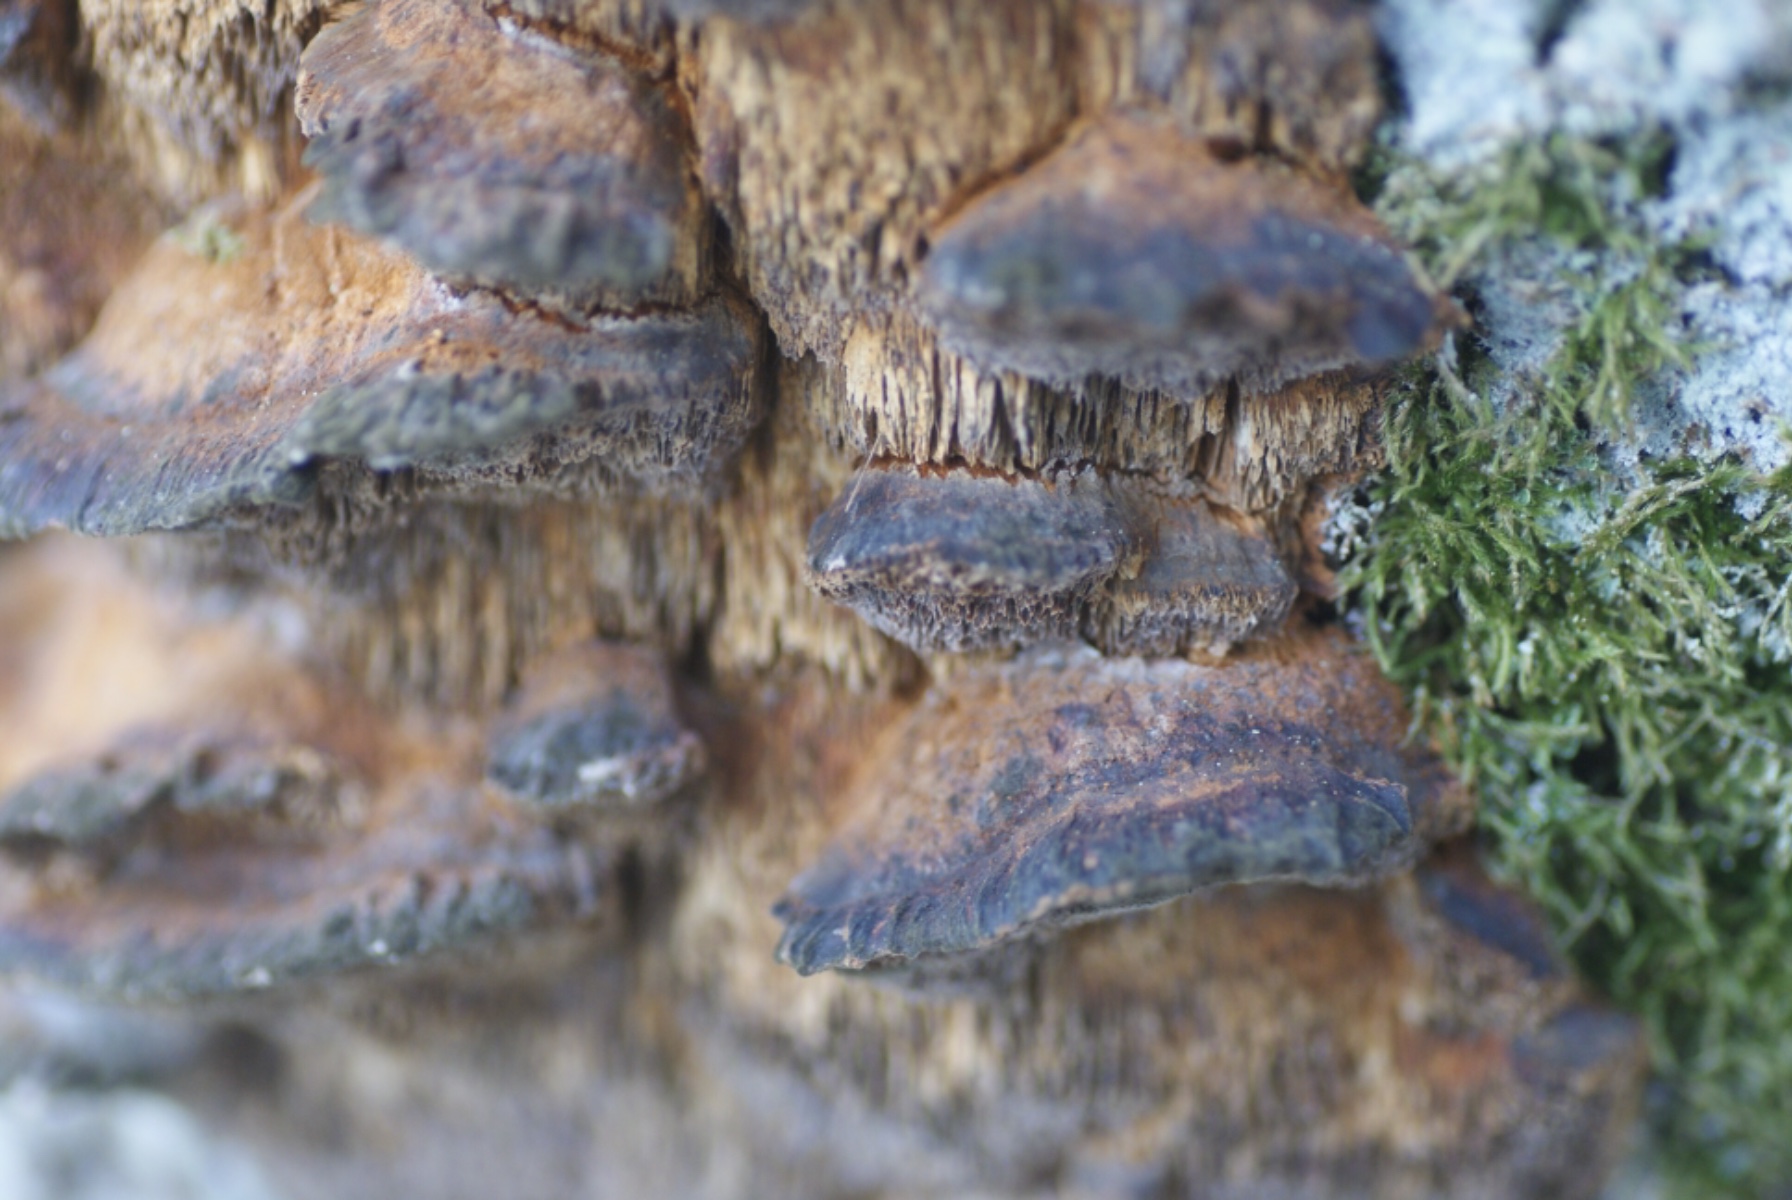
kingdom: Fungi
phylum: Basidiomycota
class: Agaricomycetes
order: Hymenochaetales
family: Hymenochaetaceae
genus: Xanthoporia
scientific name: Xanthoporia radiata
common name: elle-spejlporesvamp
